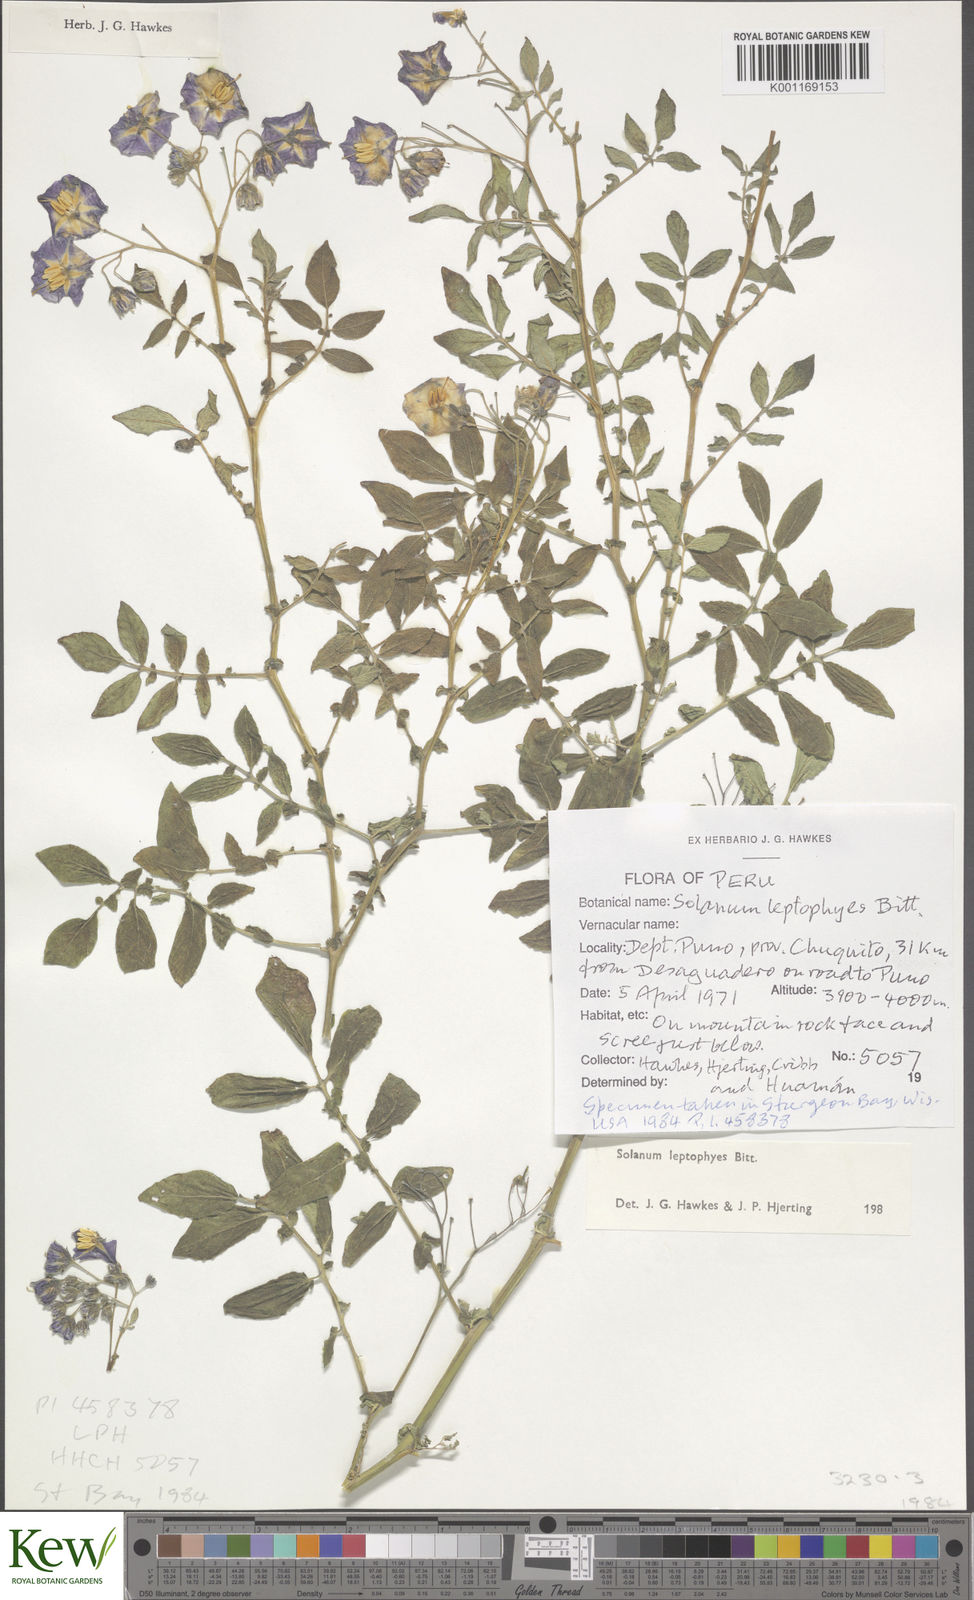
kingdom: Plantae
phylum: Tracheophyta
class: Magnoliopsida
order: Solanales
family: Solanaceae
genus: Solanum
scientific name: Solanum brevicaule
